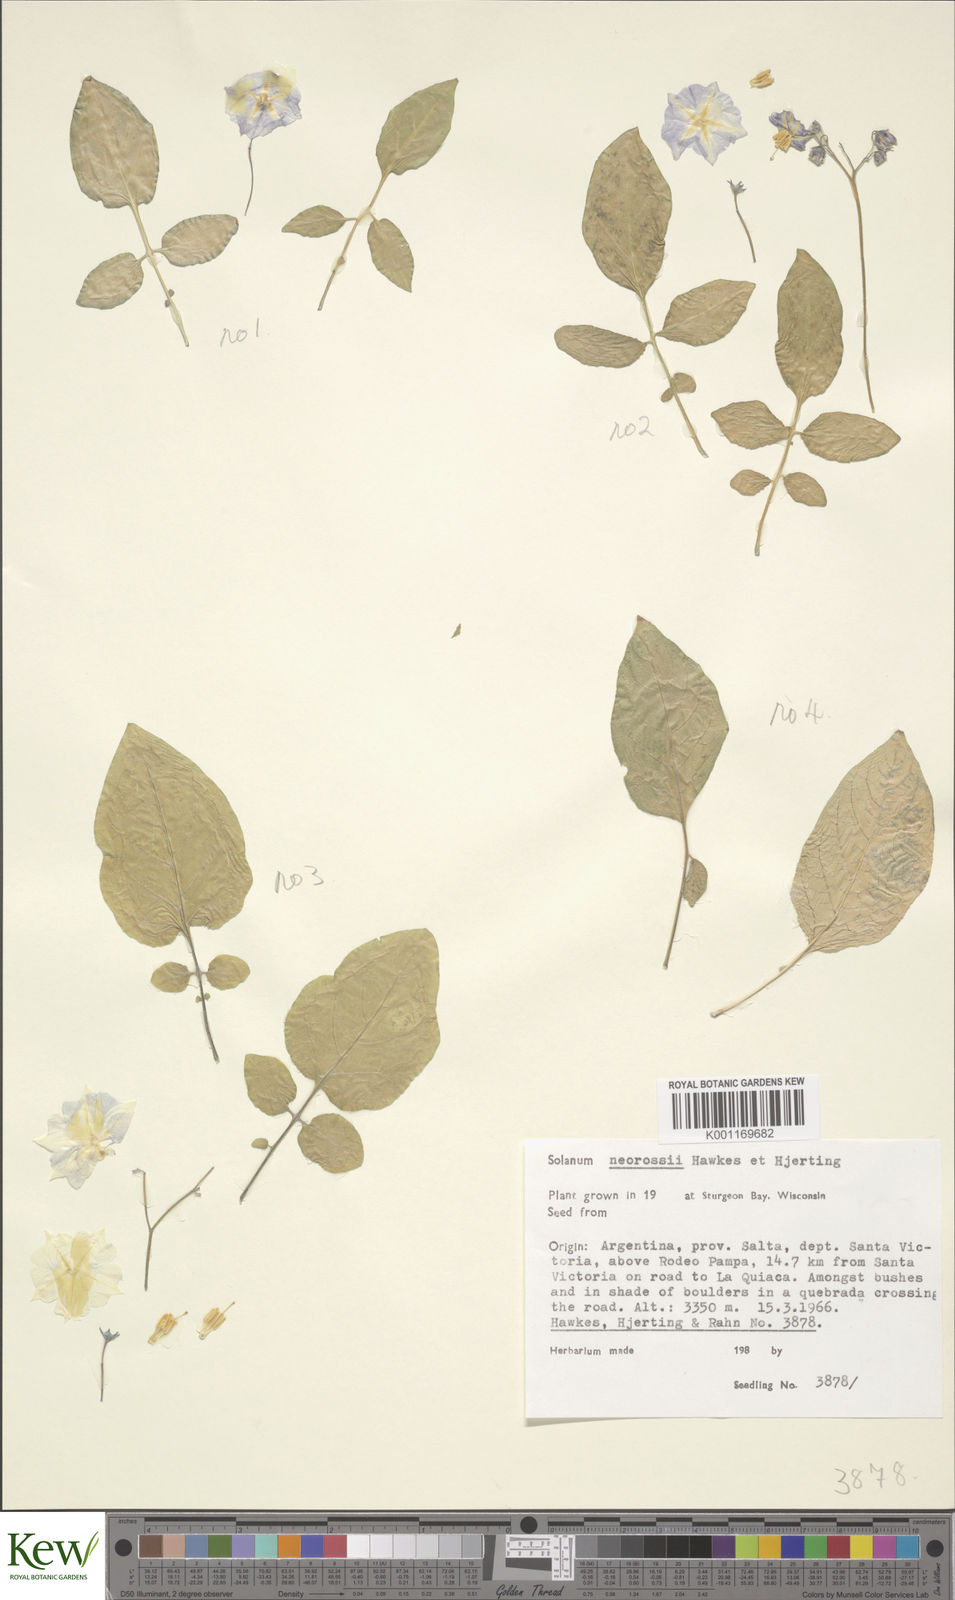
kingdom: Plantae
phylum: Tracheophyta
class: Magnoliopsida
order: Solanales
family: Solanaceae
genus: Solanum
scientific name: Solanum neorossii
